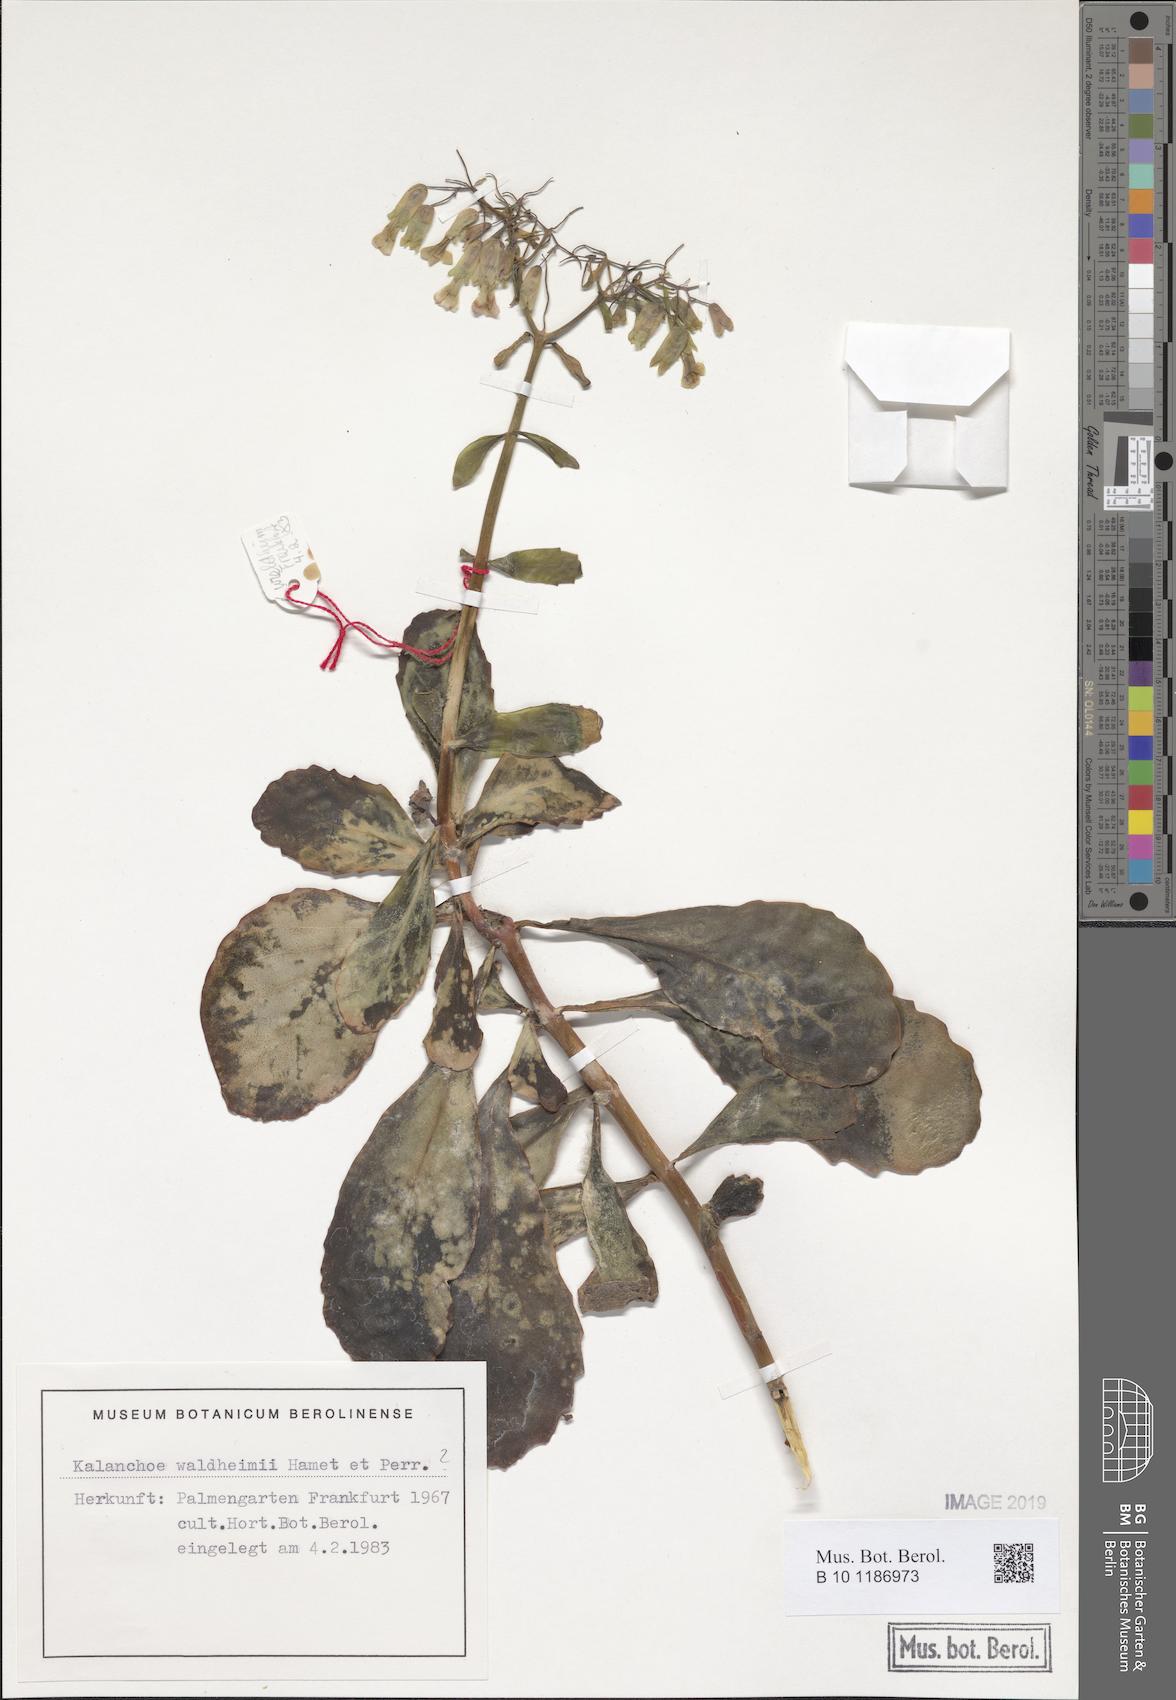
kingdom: Plantae
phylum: Tracheophyta
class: Magnoliopsida
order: Saxifragales
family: Crassulaceae
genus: Kalanchoe
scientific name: Kalanchoe waldheimii
